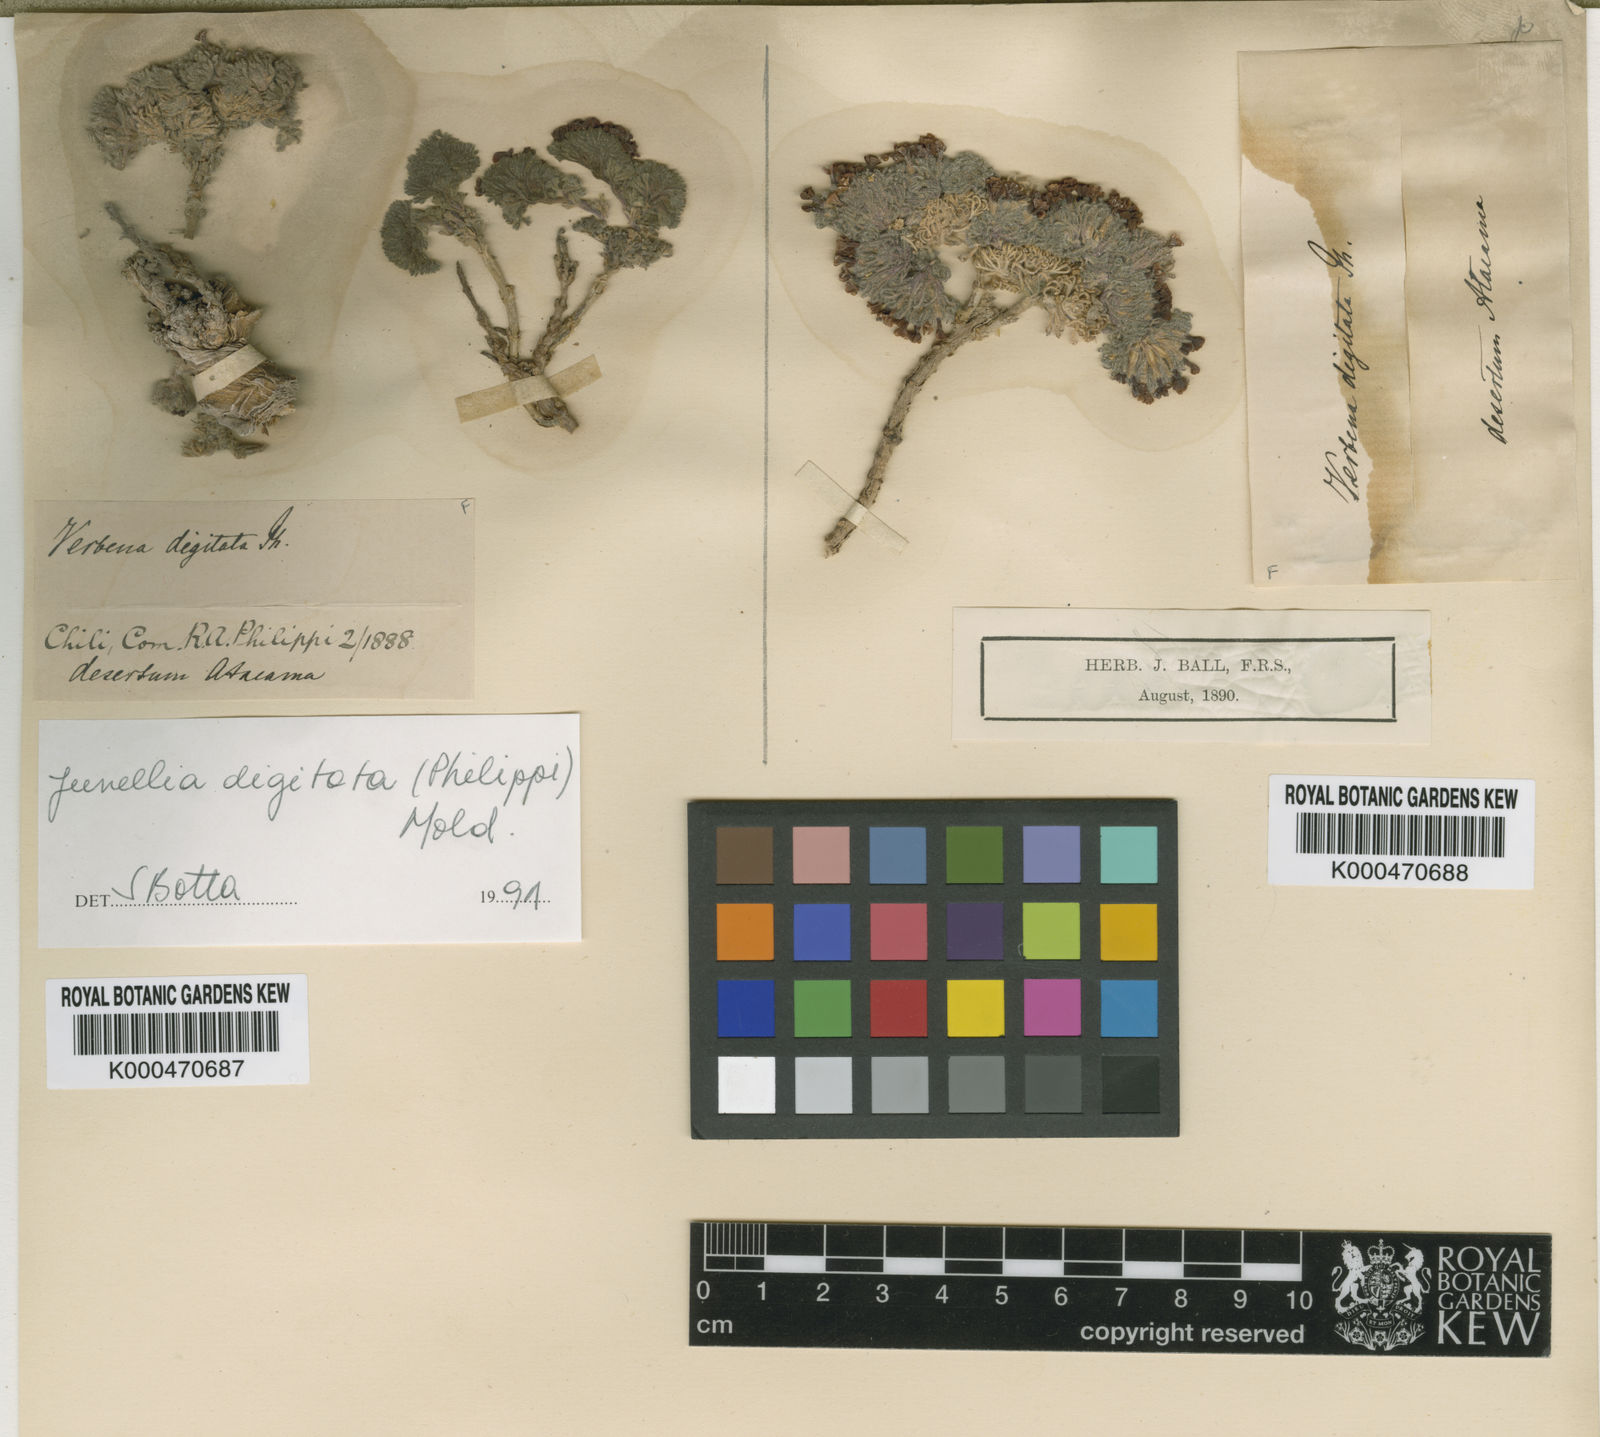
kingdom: Plantae
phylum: Tracheophyta
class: Magnoliopsida
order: Lamiales
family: Verbenaceae
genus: Junellia
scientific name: Junellia digitata
